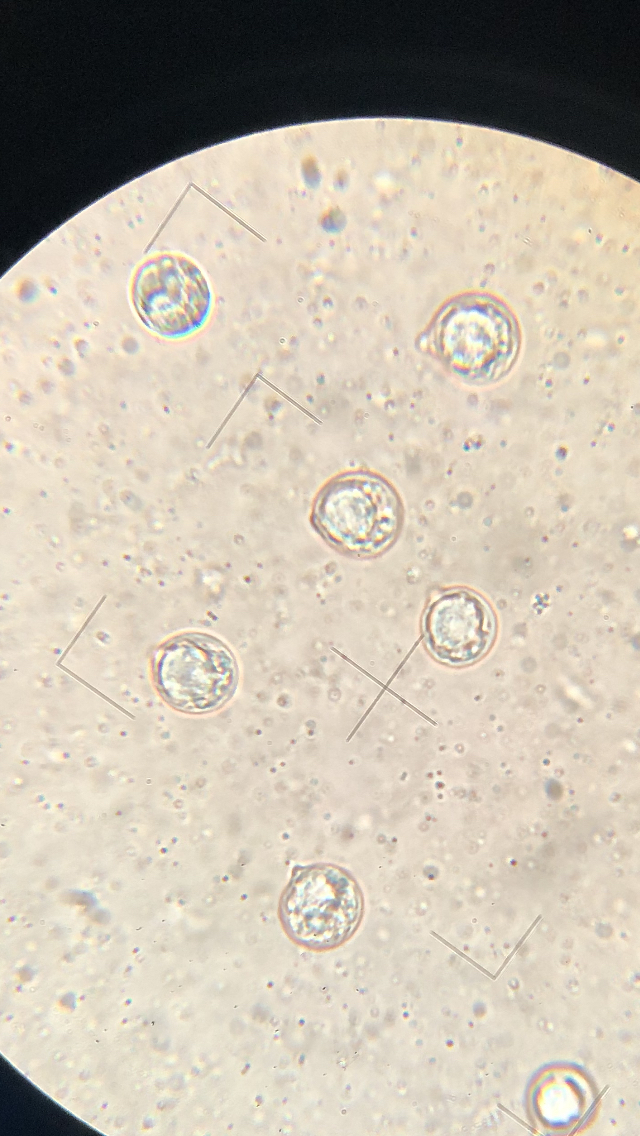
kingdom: Fungi
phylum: Basidiomycota
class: Agaricomycetes
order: Agaricales
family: Amanitaceae
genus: Amanita
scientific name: Amanita
